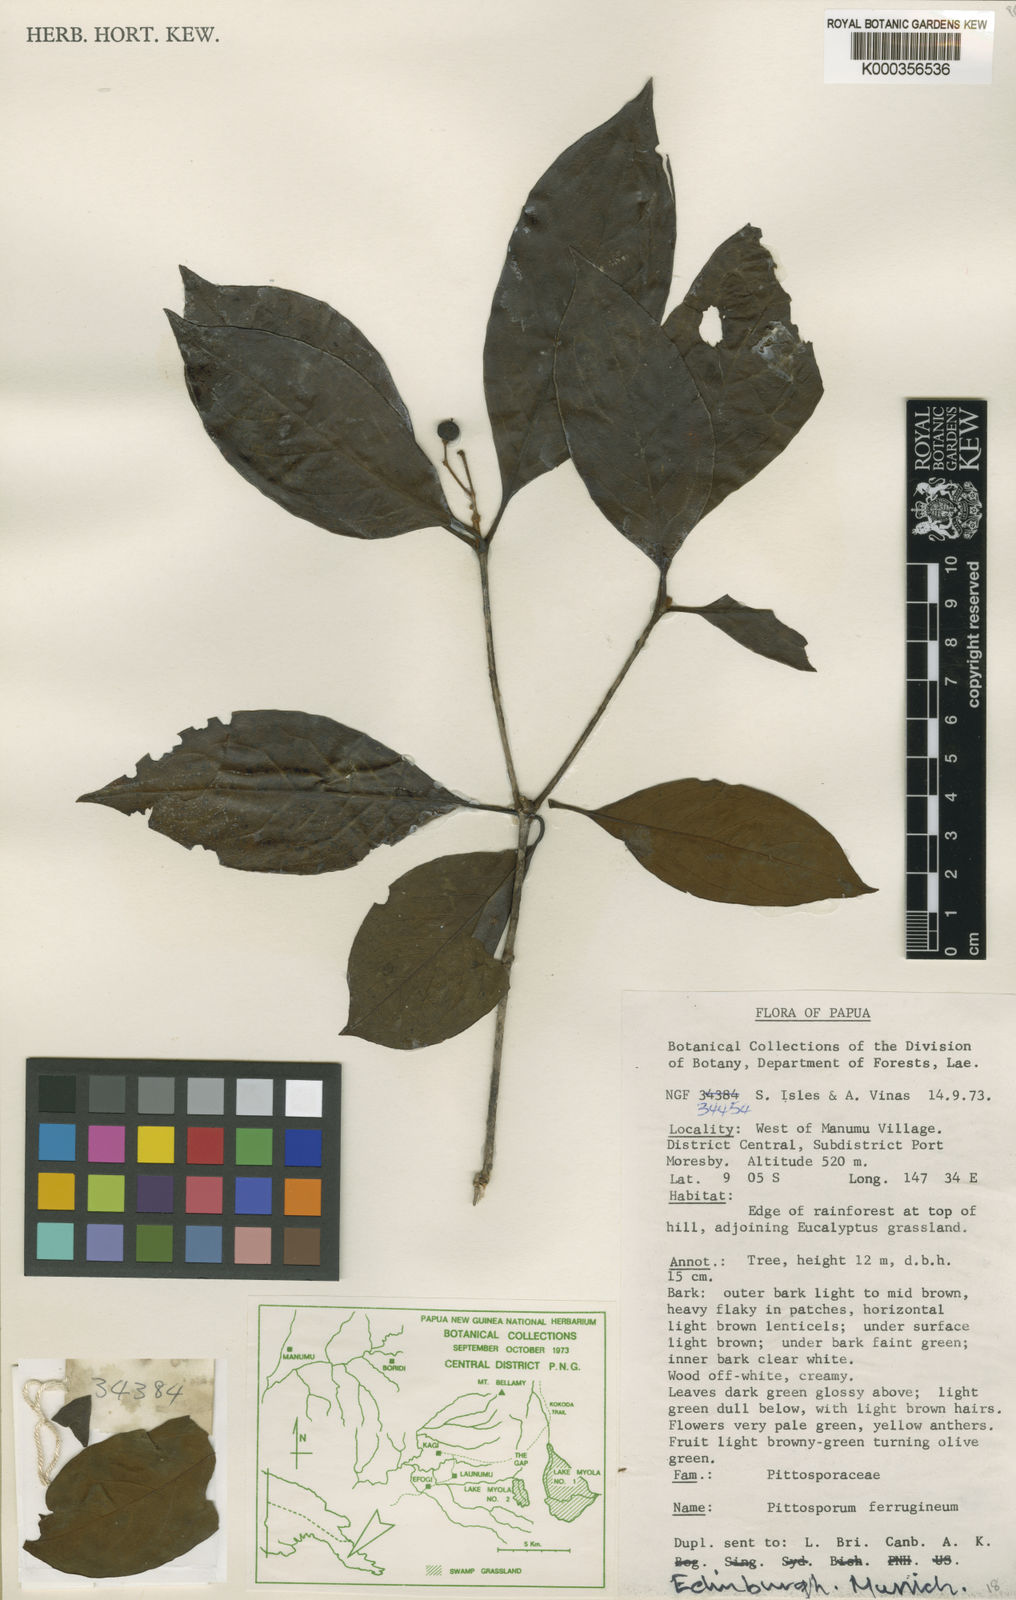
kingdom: Plantae
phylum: Tracheophyta
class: Magnoliopsida
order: Apiales
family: Pittosporaceae
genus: Pittosporum
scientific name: Pittosporum ferrugineum
